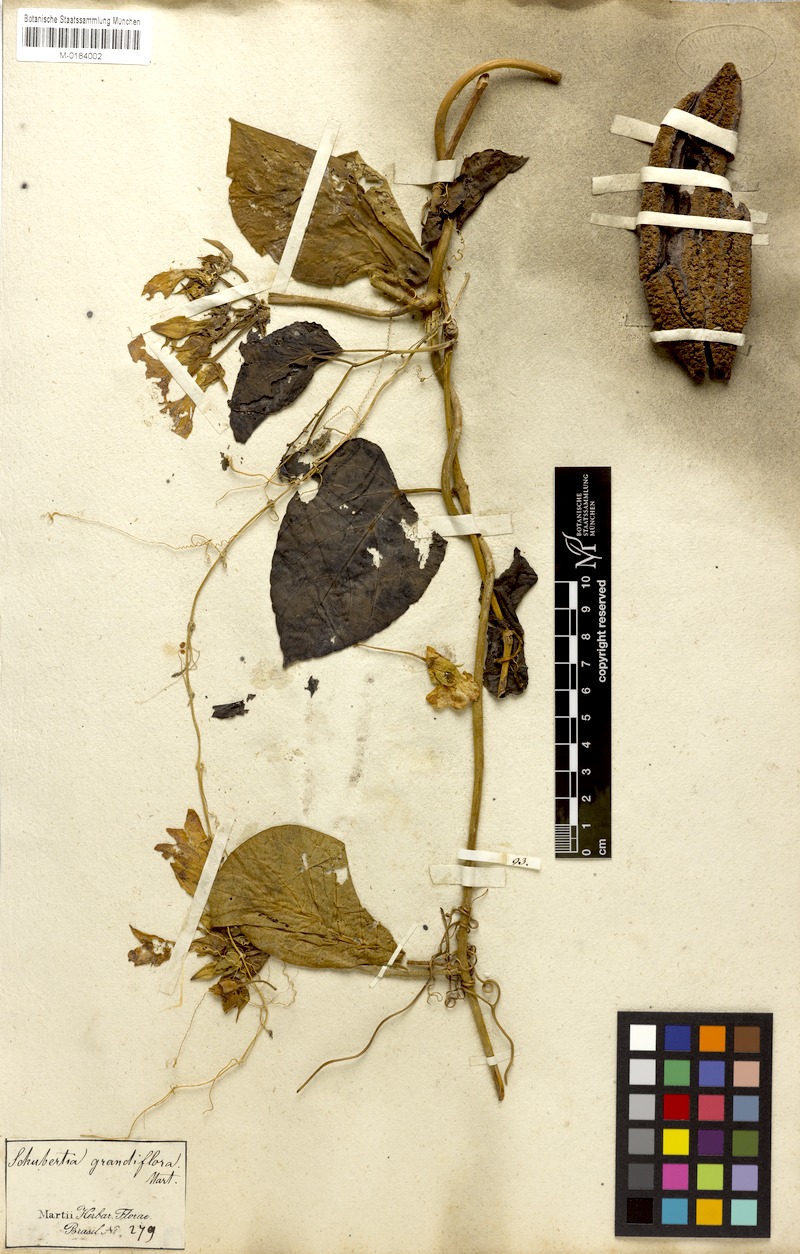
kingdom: Plantae
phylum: Tracheophyta
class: Magnoliopsida
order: Gentianales
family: Apocynaceae
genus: Macroscepis
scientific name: Macroscepis grandiflora
